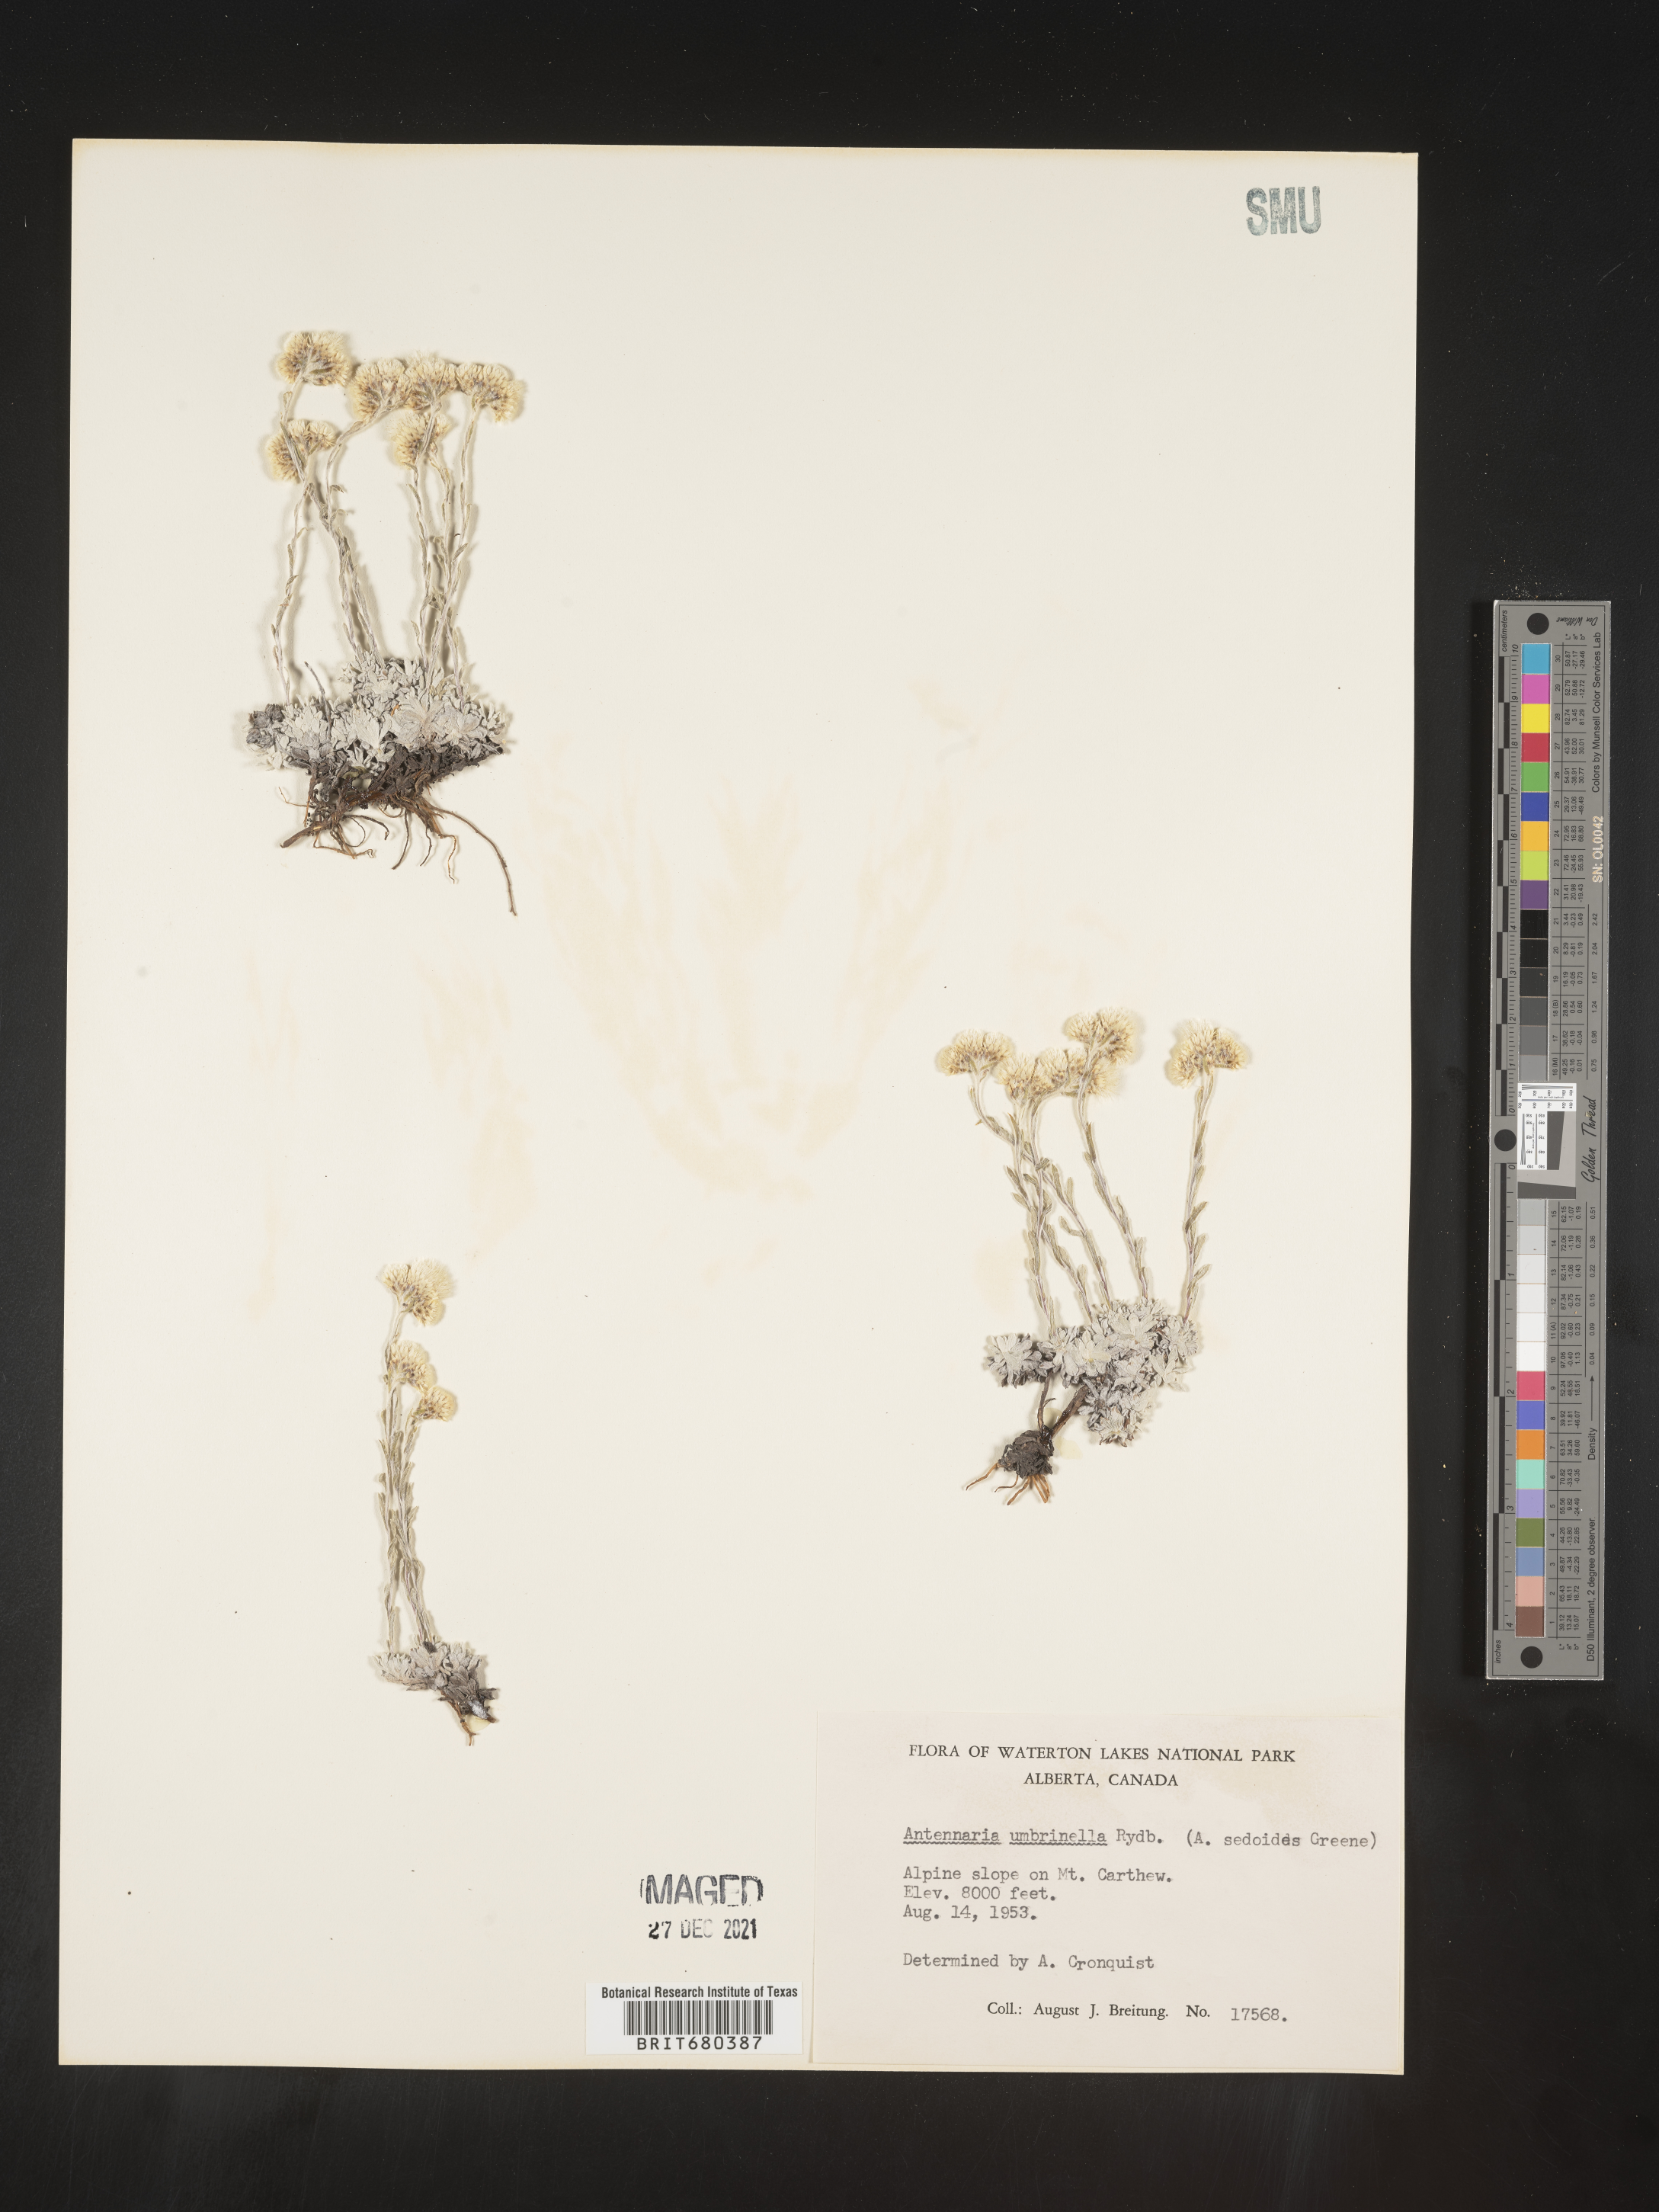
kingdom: Plantae
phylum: Tracheophyta
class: Magnoliopsida
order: Asterales
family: Asteraceae
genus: Antennaria
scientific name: Antennaria umbrinella
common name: Brown pussytoes
